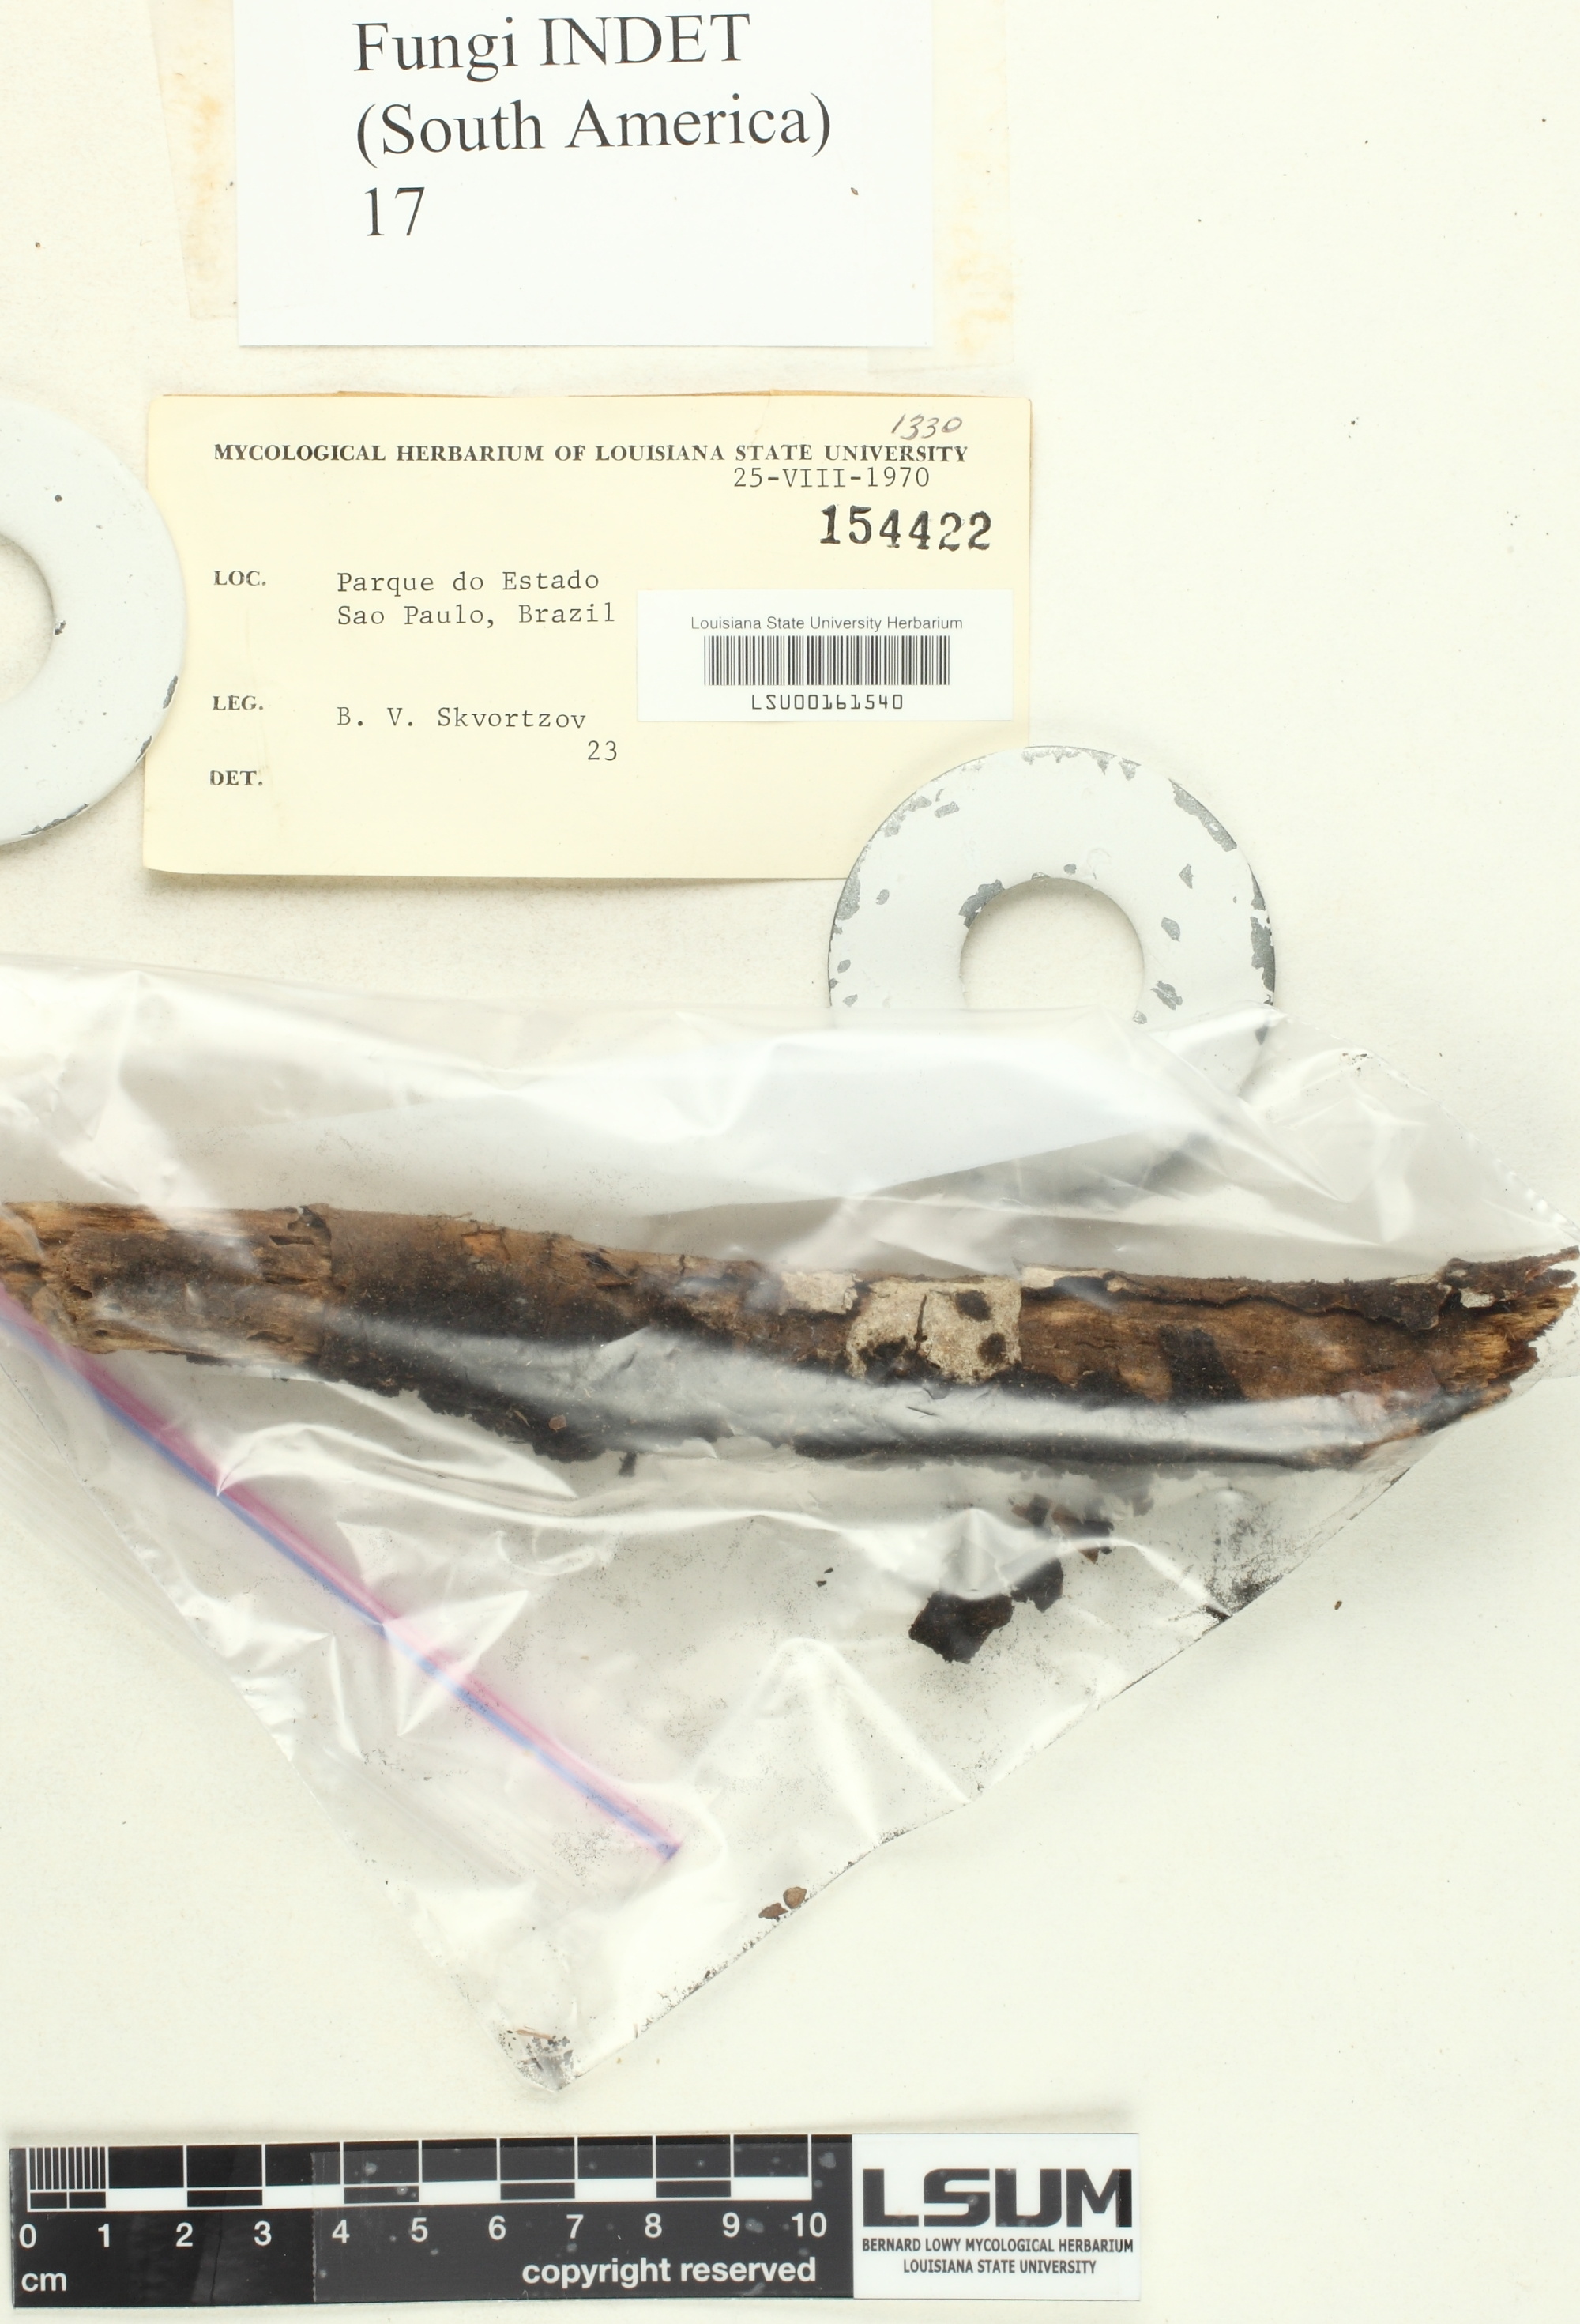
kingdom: Fungi
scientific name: Fungi
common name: Fungi
